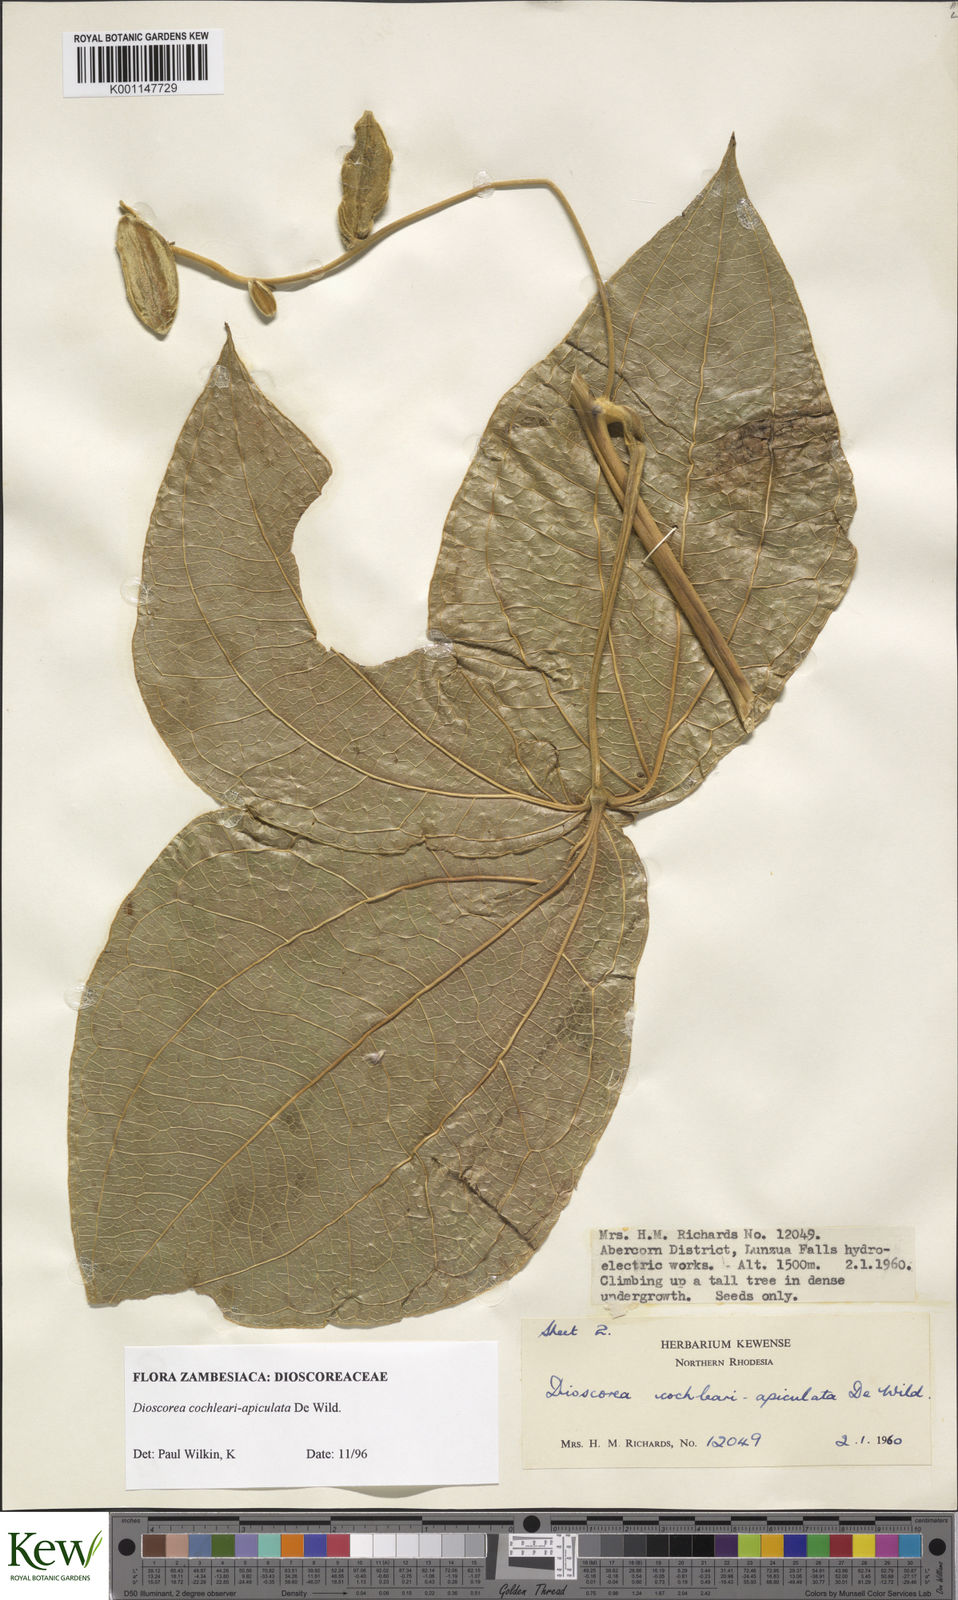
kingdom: Plantae
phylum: Tracheophyta
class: Liliopsida
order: Dioscoreales
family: Dioscoreaceae
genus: Dioscorea
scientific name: Dioscorea cochleariapiculata
